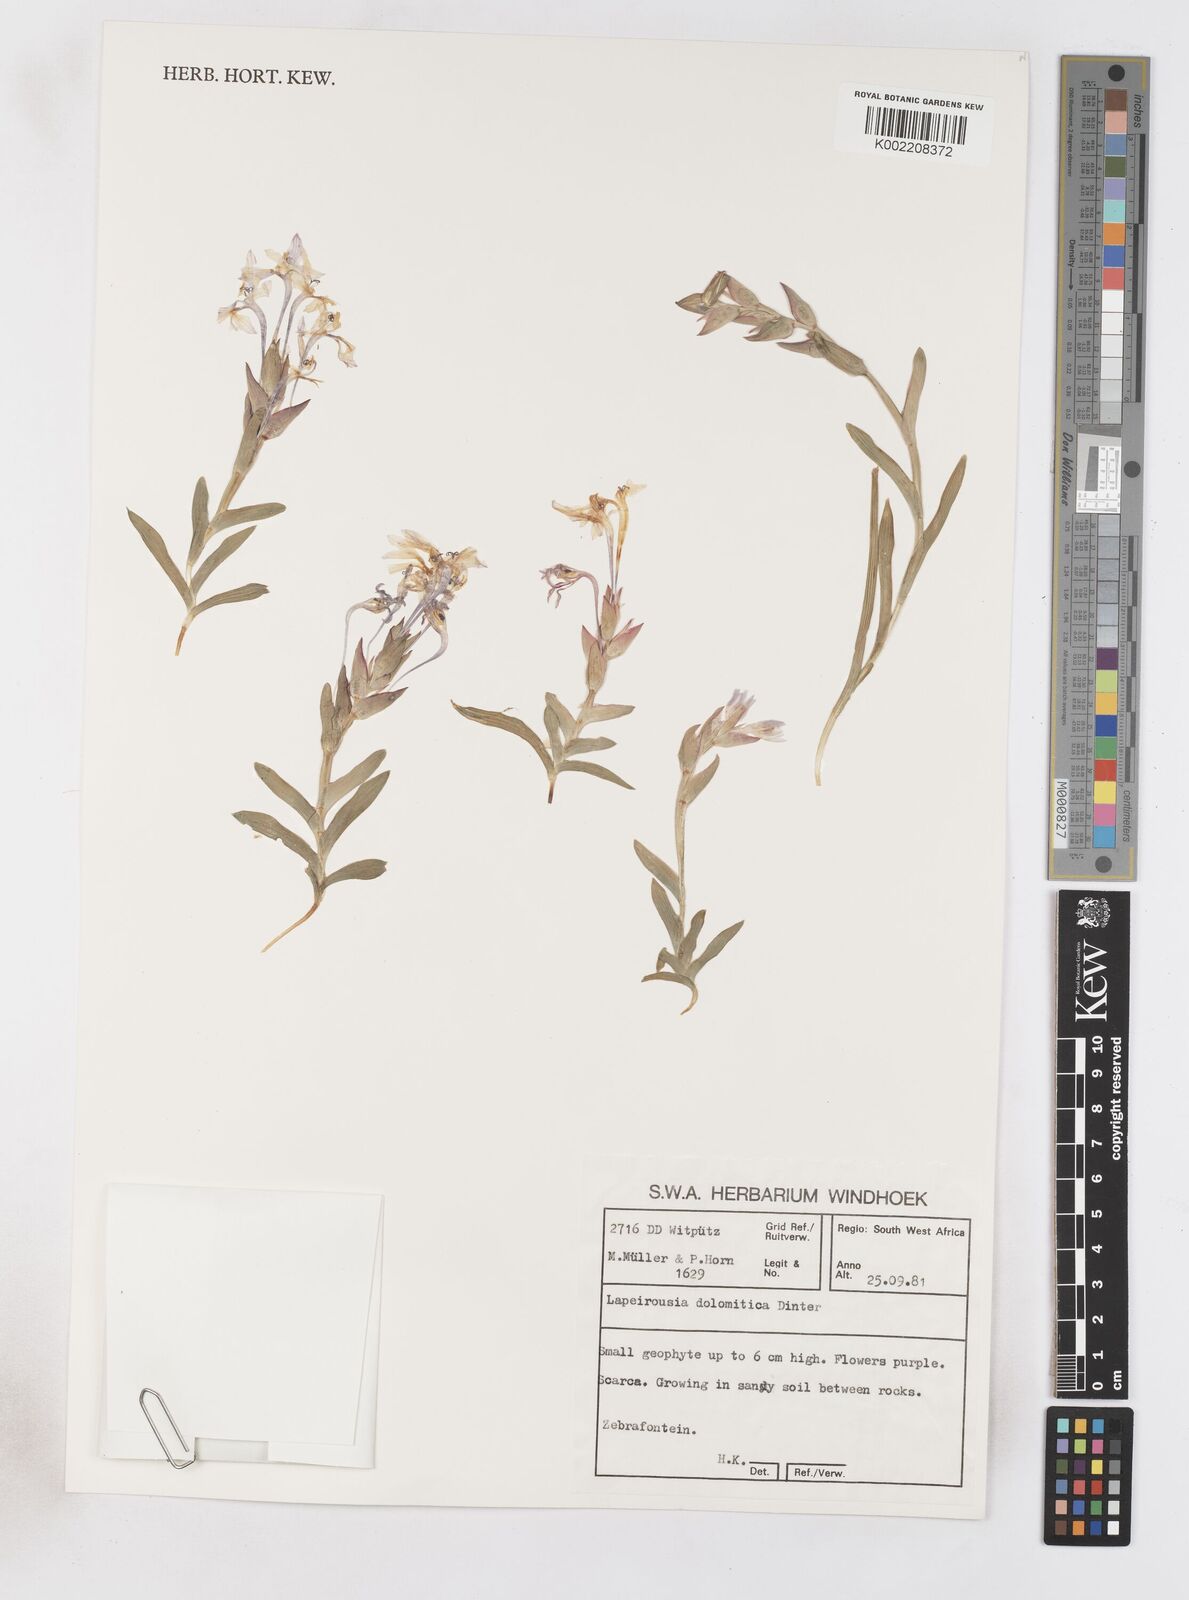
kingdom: Plantae
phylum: Tracheophyta
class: Liliopsida
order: Asparagales
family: Iridaceae
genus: Lapeirousia
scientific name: Lapeirousia dolomitica
